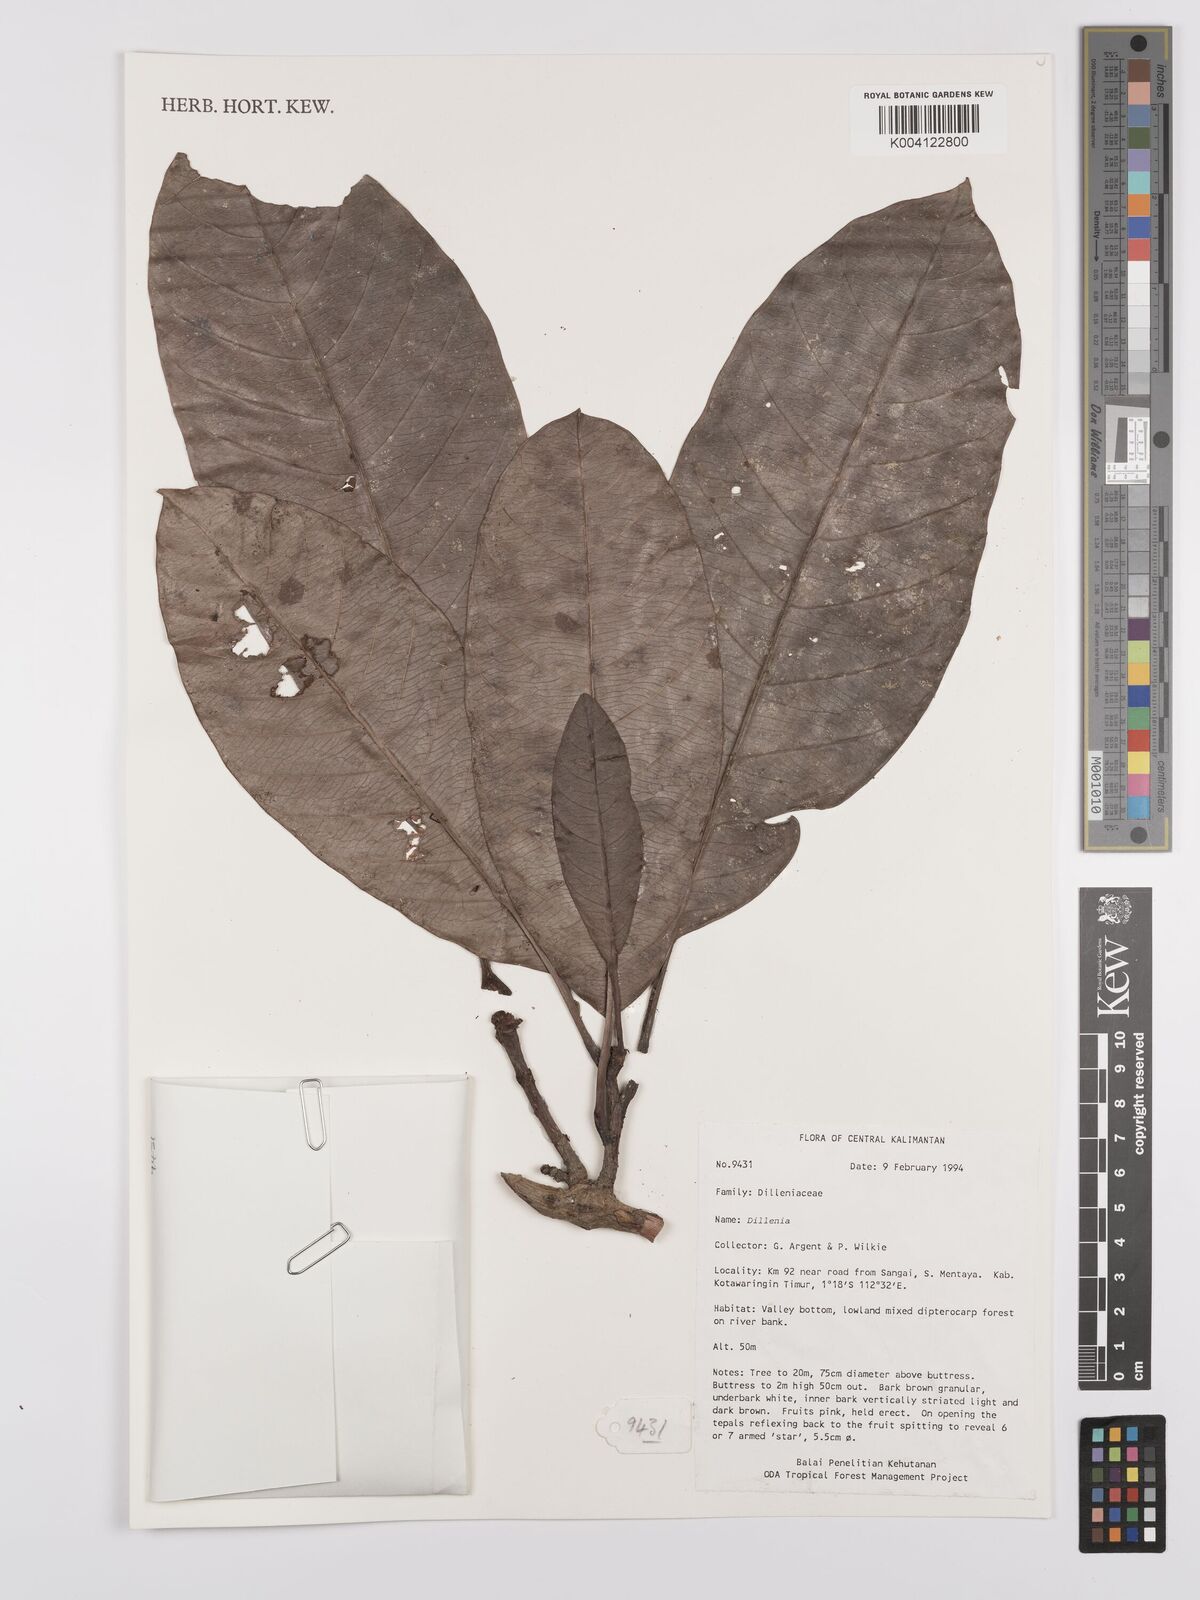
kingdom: Plantae
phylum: Tracheophyta
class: Magnoliopsida
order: Dilleniales
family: Dilleniaceae
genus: Dillenia
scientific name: Dillenia
